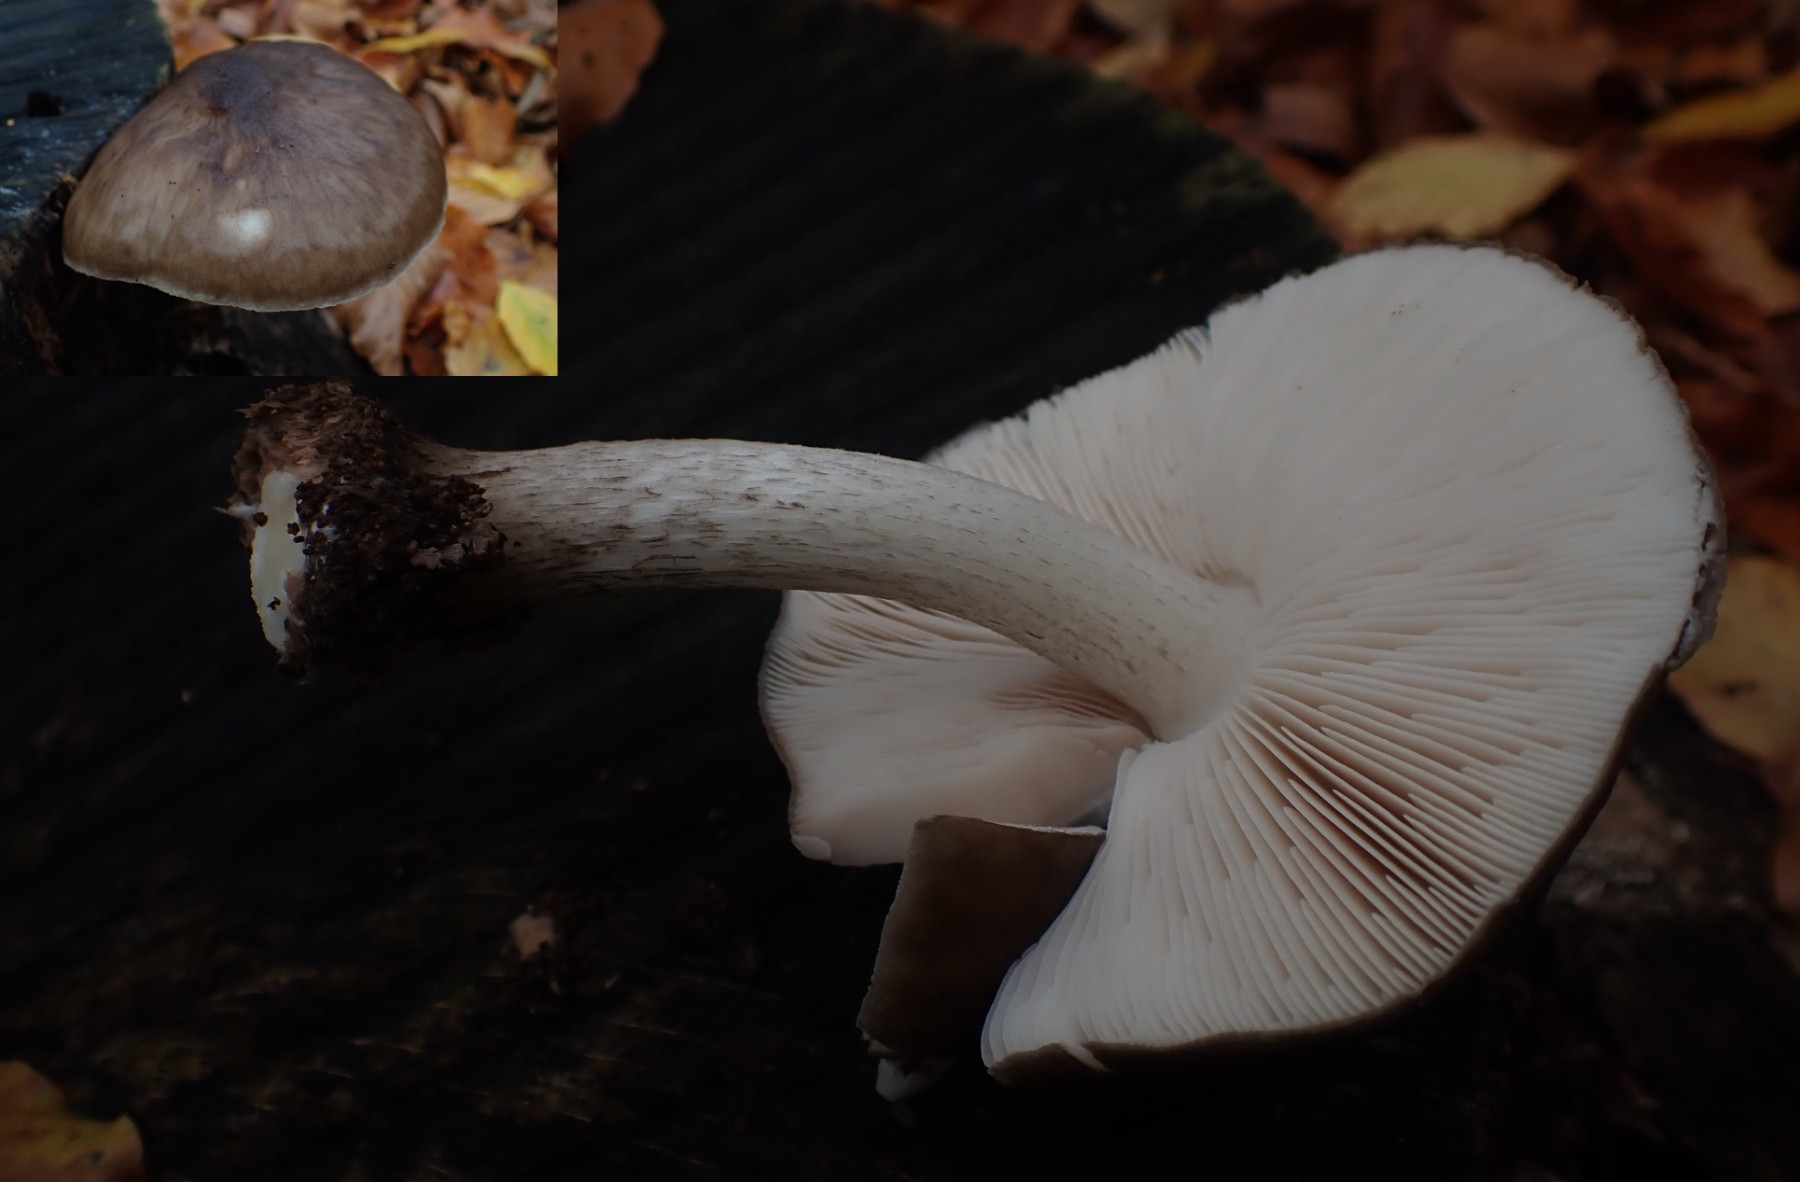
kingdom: Fungi
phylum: Basidiomycota
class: Agaricomycetes
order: Agaricales
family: Pluteaceae
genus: Pluteus
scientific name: Pluteus cervinus
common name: sodfarvet skærmhat
